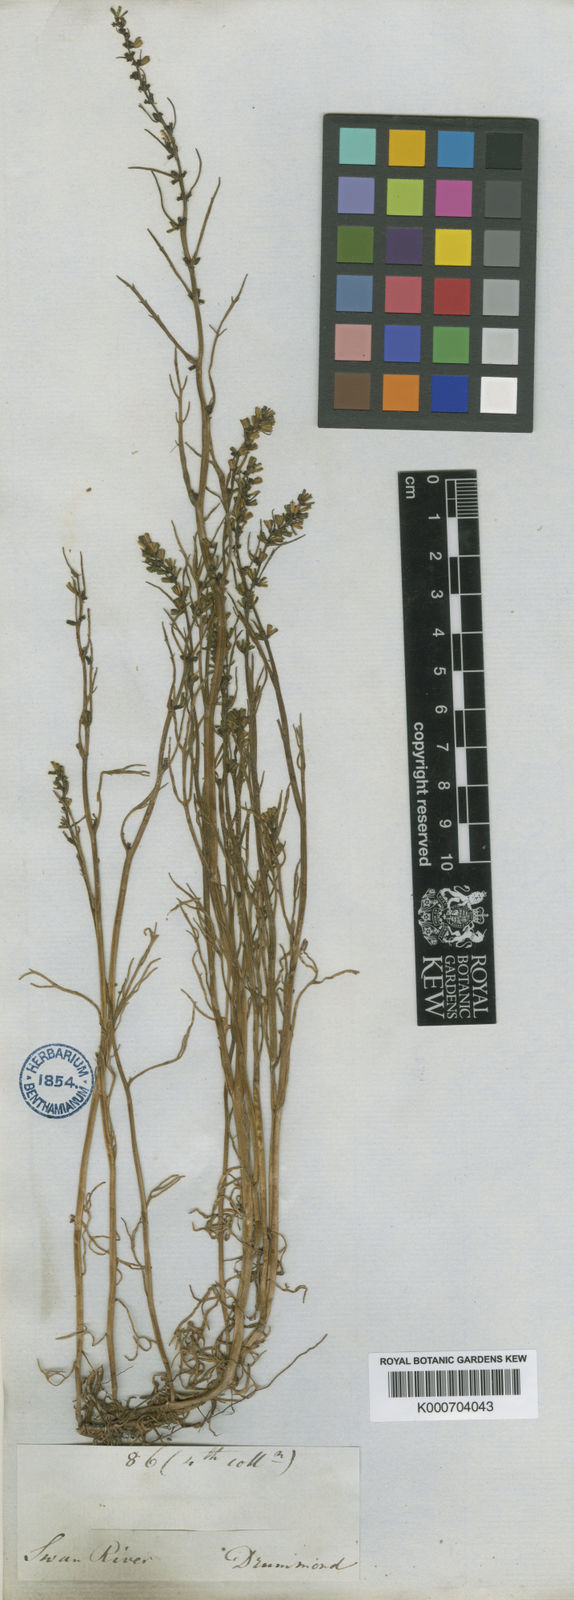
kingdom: Plantae
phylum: Tracheophyta
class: Magnoliopsida
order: Saxifragales
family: Haloragaceae
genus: Haloragis
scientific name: Haloragis tenuifolia
